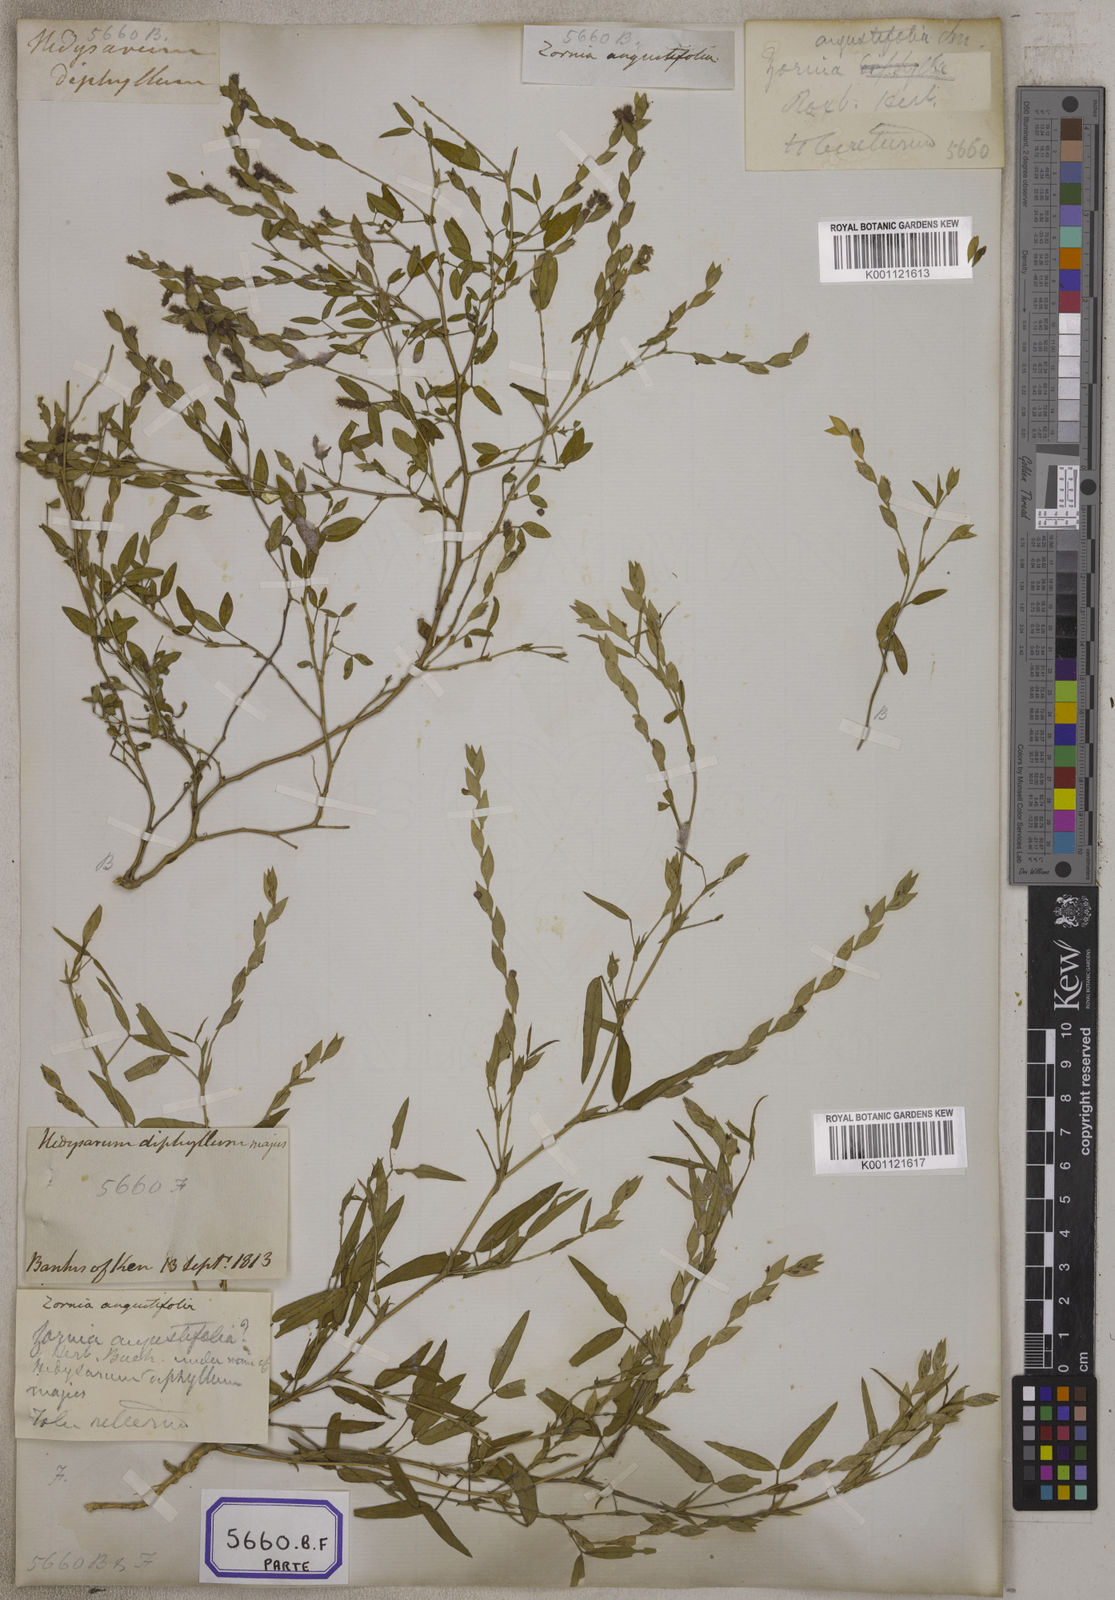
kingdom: Plantae
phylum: Tracheophyta
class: Magnoliopsida
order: Fabales
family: Fabaceae
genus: Zornia
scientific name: Zornia gibbosa
